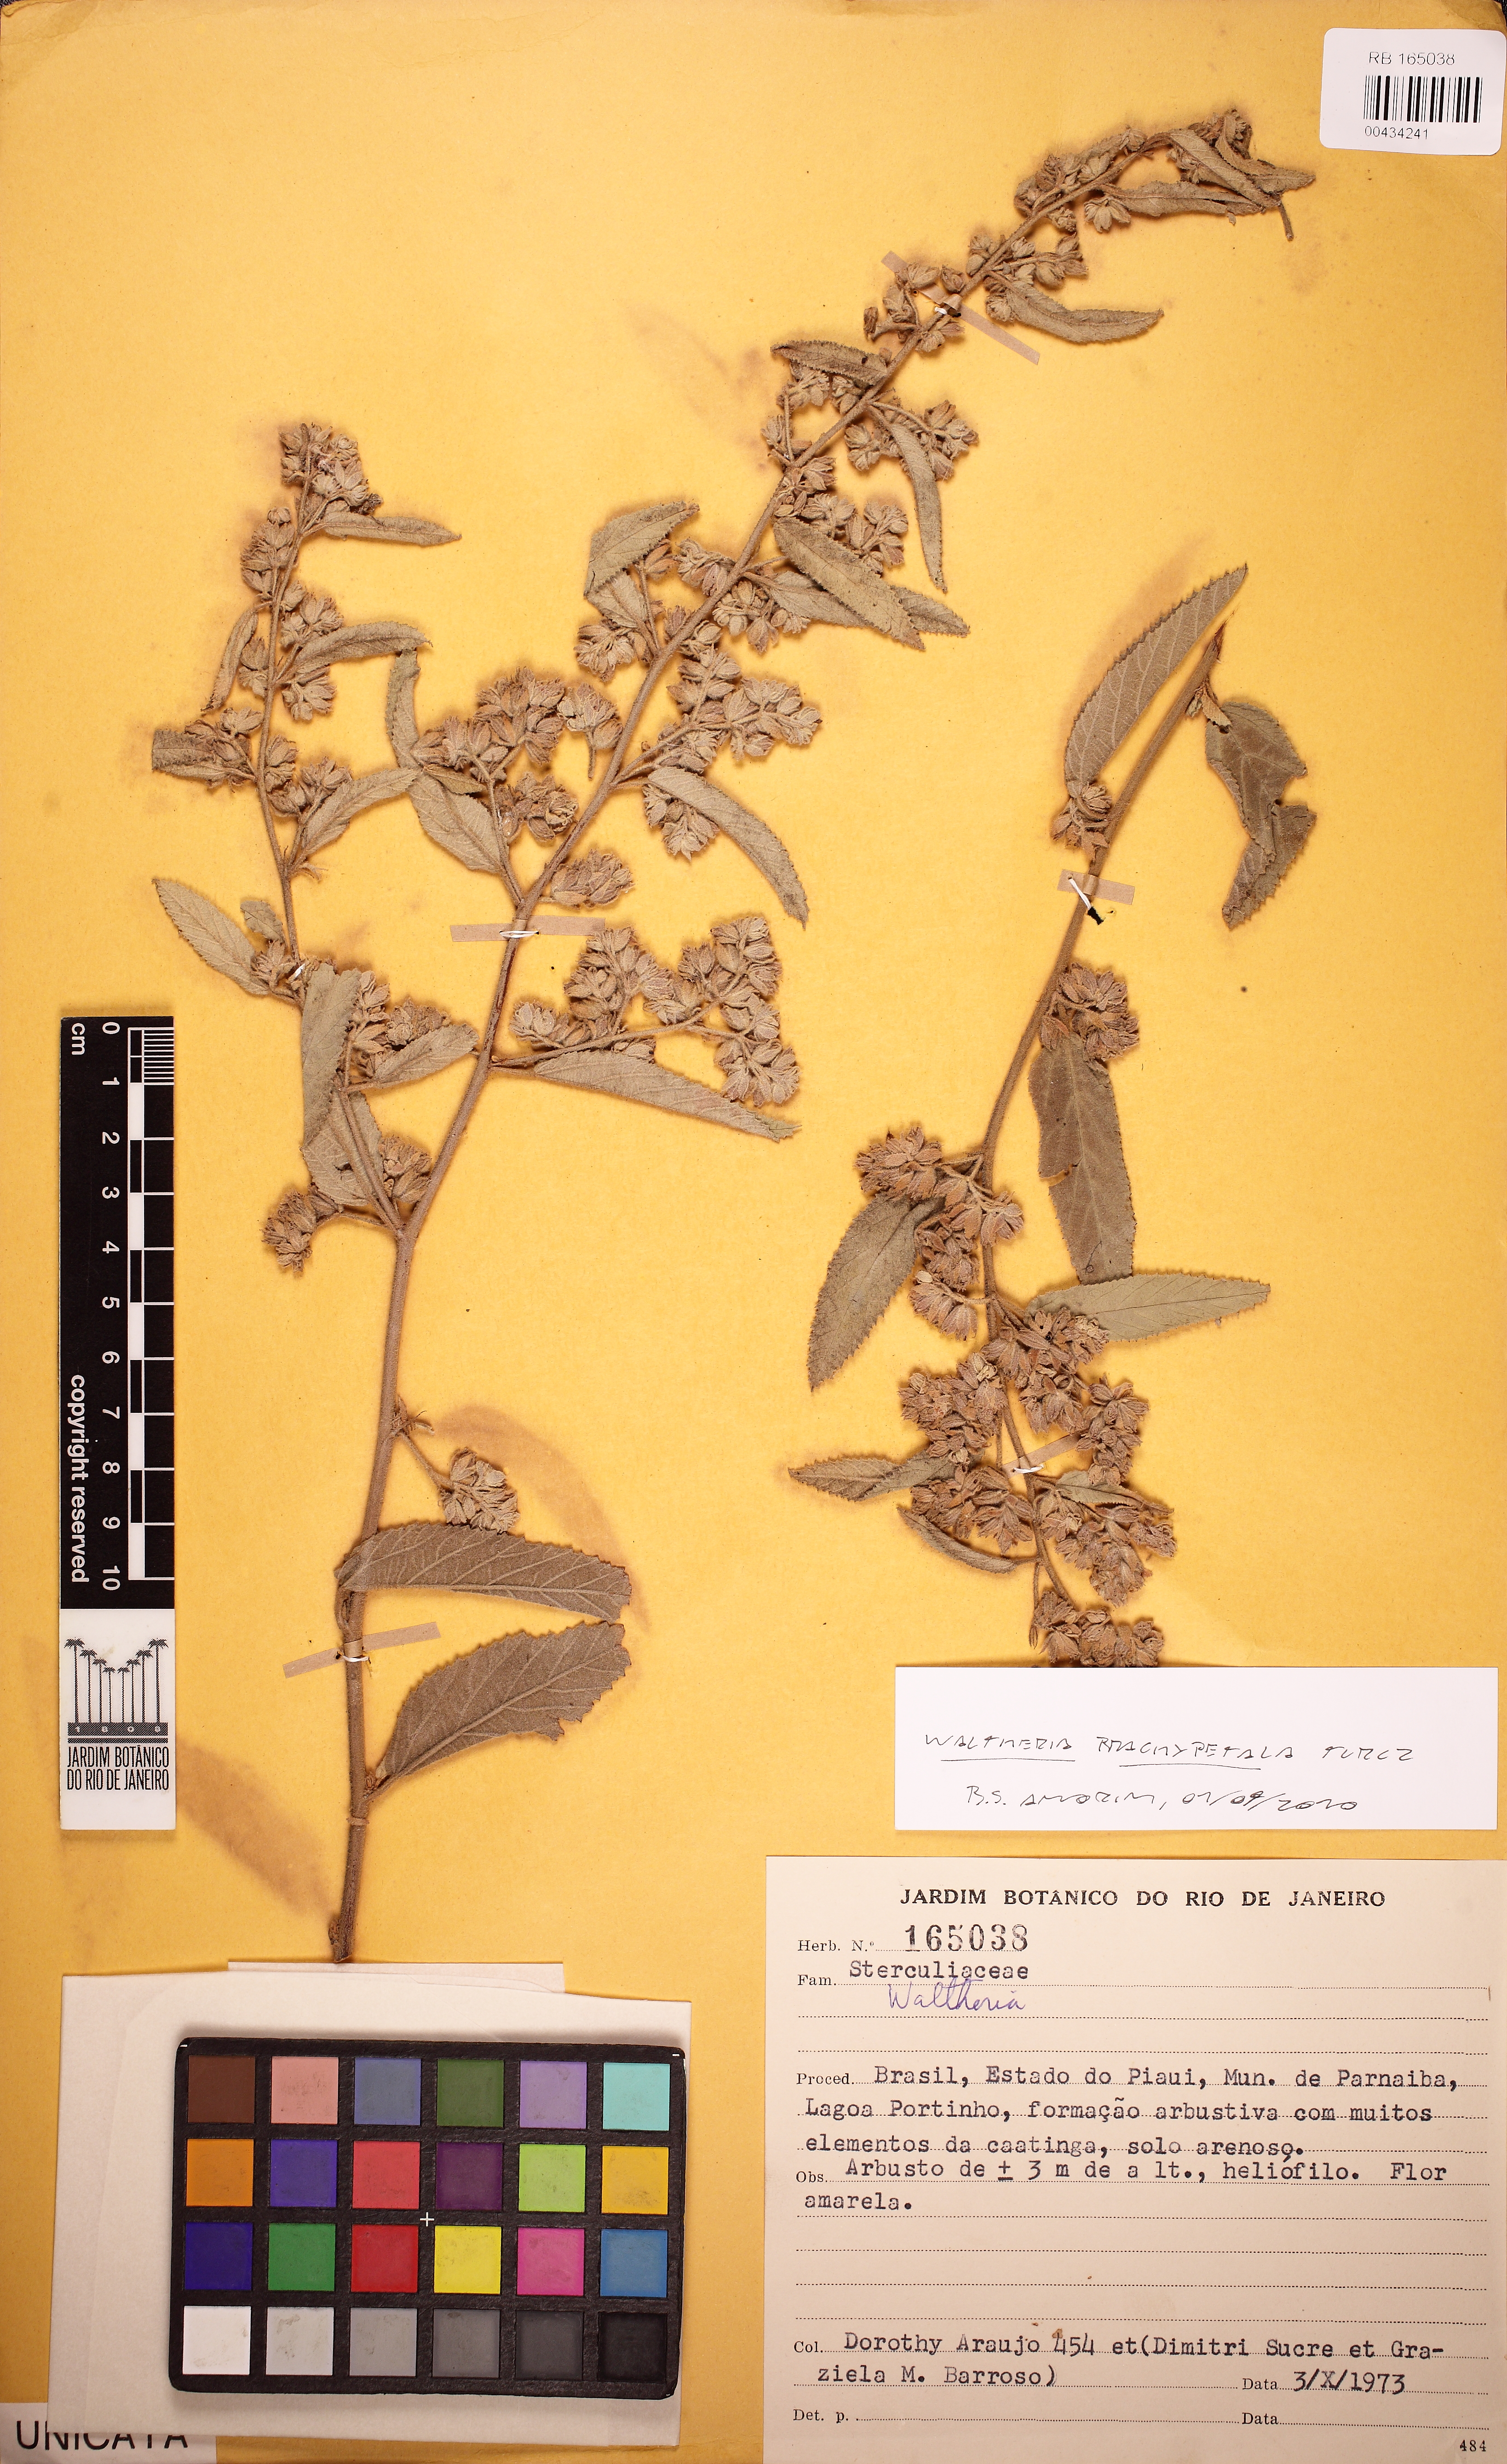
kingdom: Plantae
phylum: Tracheophyta
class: Magnoliopsida
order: Malvales
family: Malvaceae
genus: Waltheria
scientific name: Waltheria brachypetala
